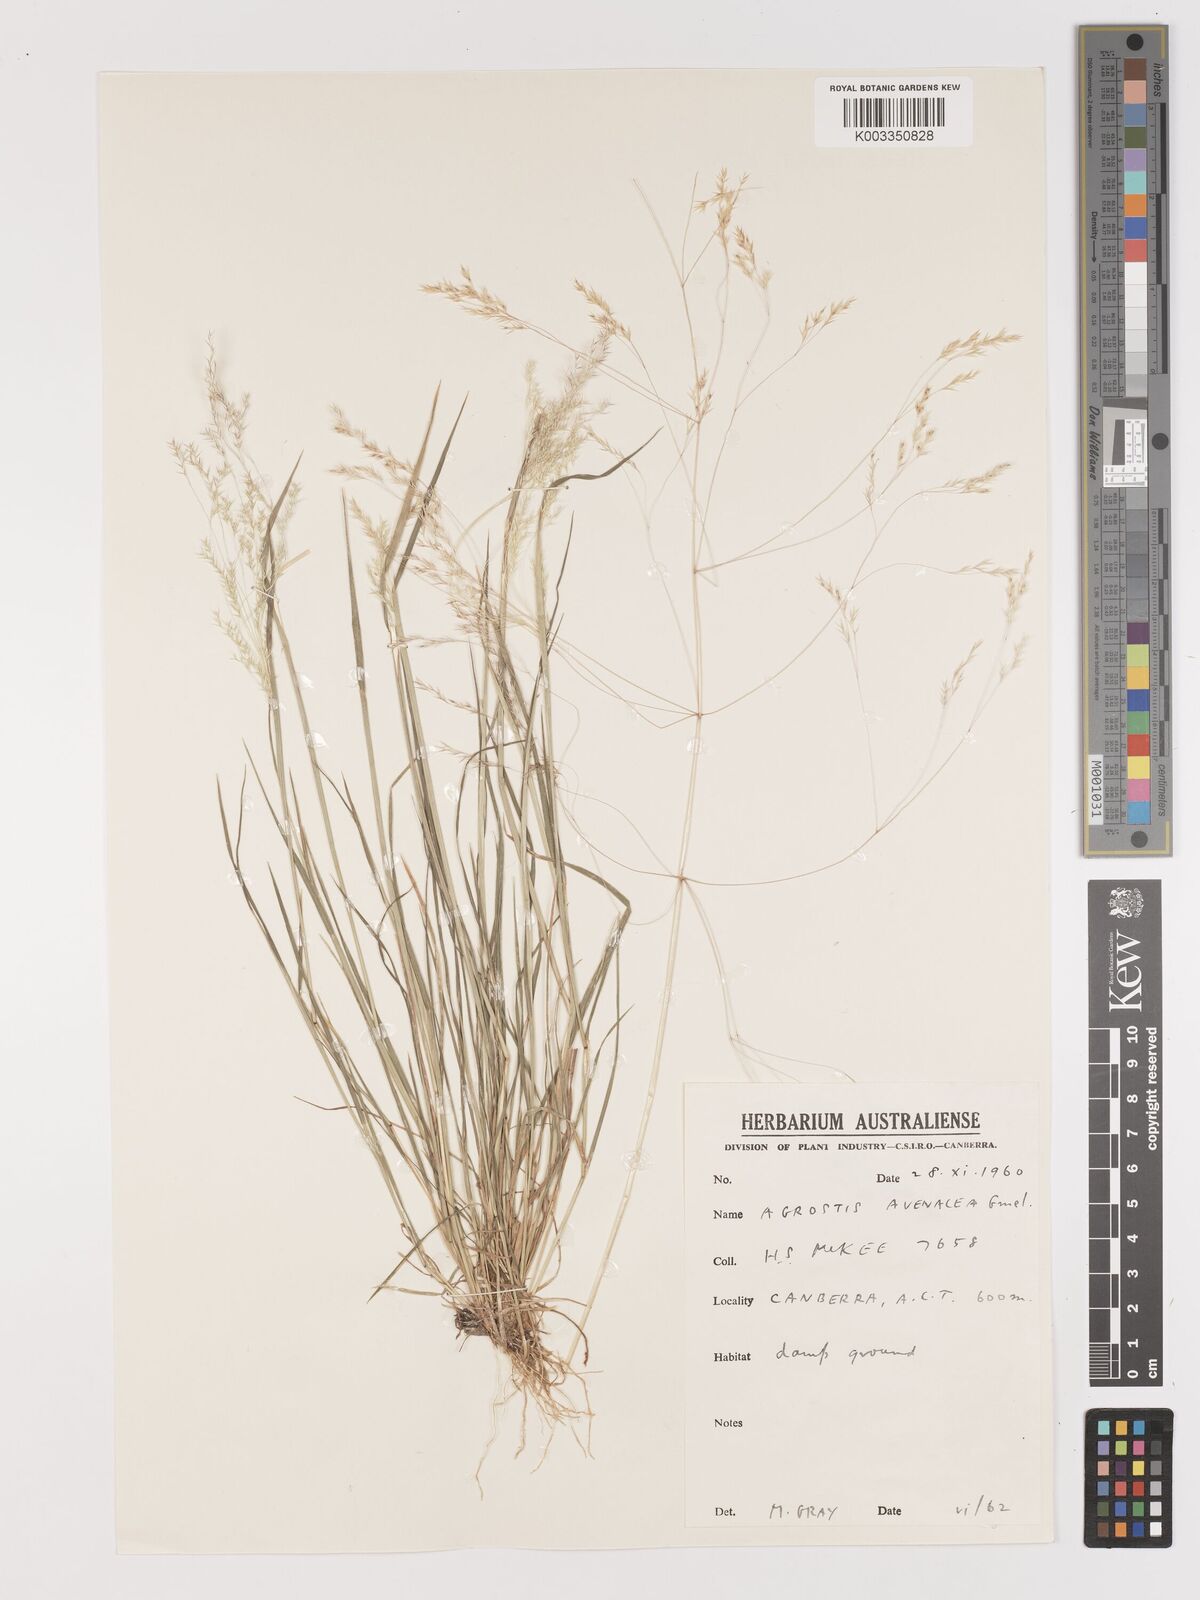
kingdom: Plantae
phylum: Tracheophyta
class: Liliopsida
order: Poales
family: Poaceae
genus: Lachnagrostis
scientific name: Lachnagrostis filiformis
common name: Bentgrass
